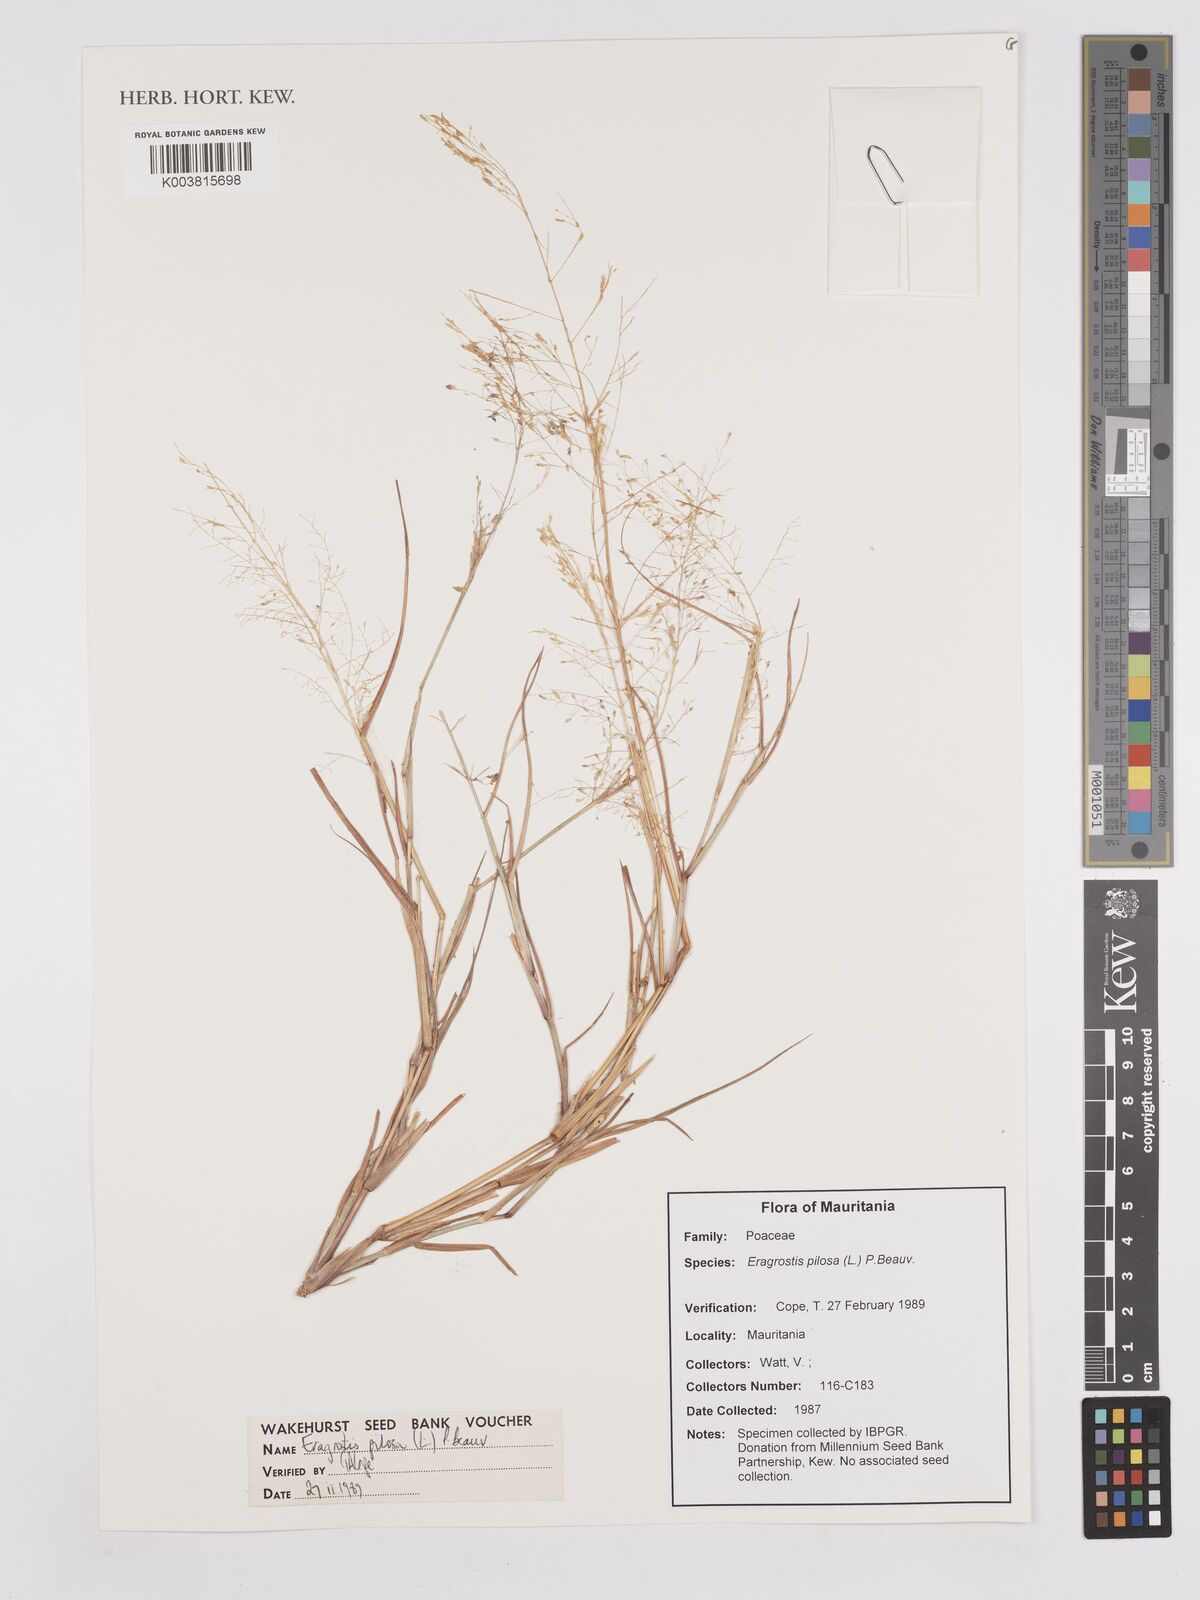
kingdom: Plantae
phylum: Tracheophyta
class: Liliopsida
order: Poales
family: Poaceae
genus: Eragrostis
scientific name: Eragrostis pilosa
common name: Indian lovegrass
